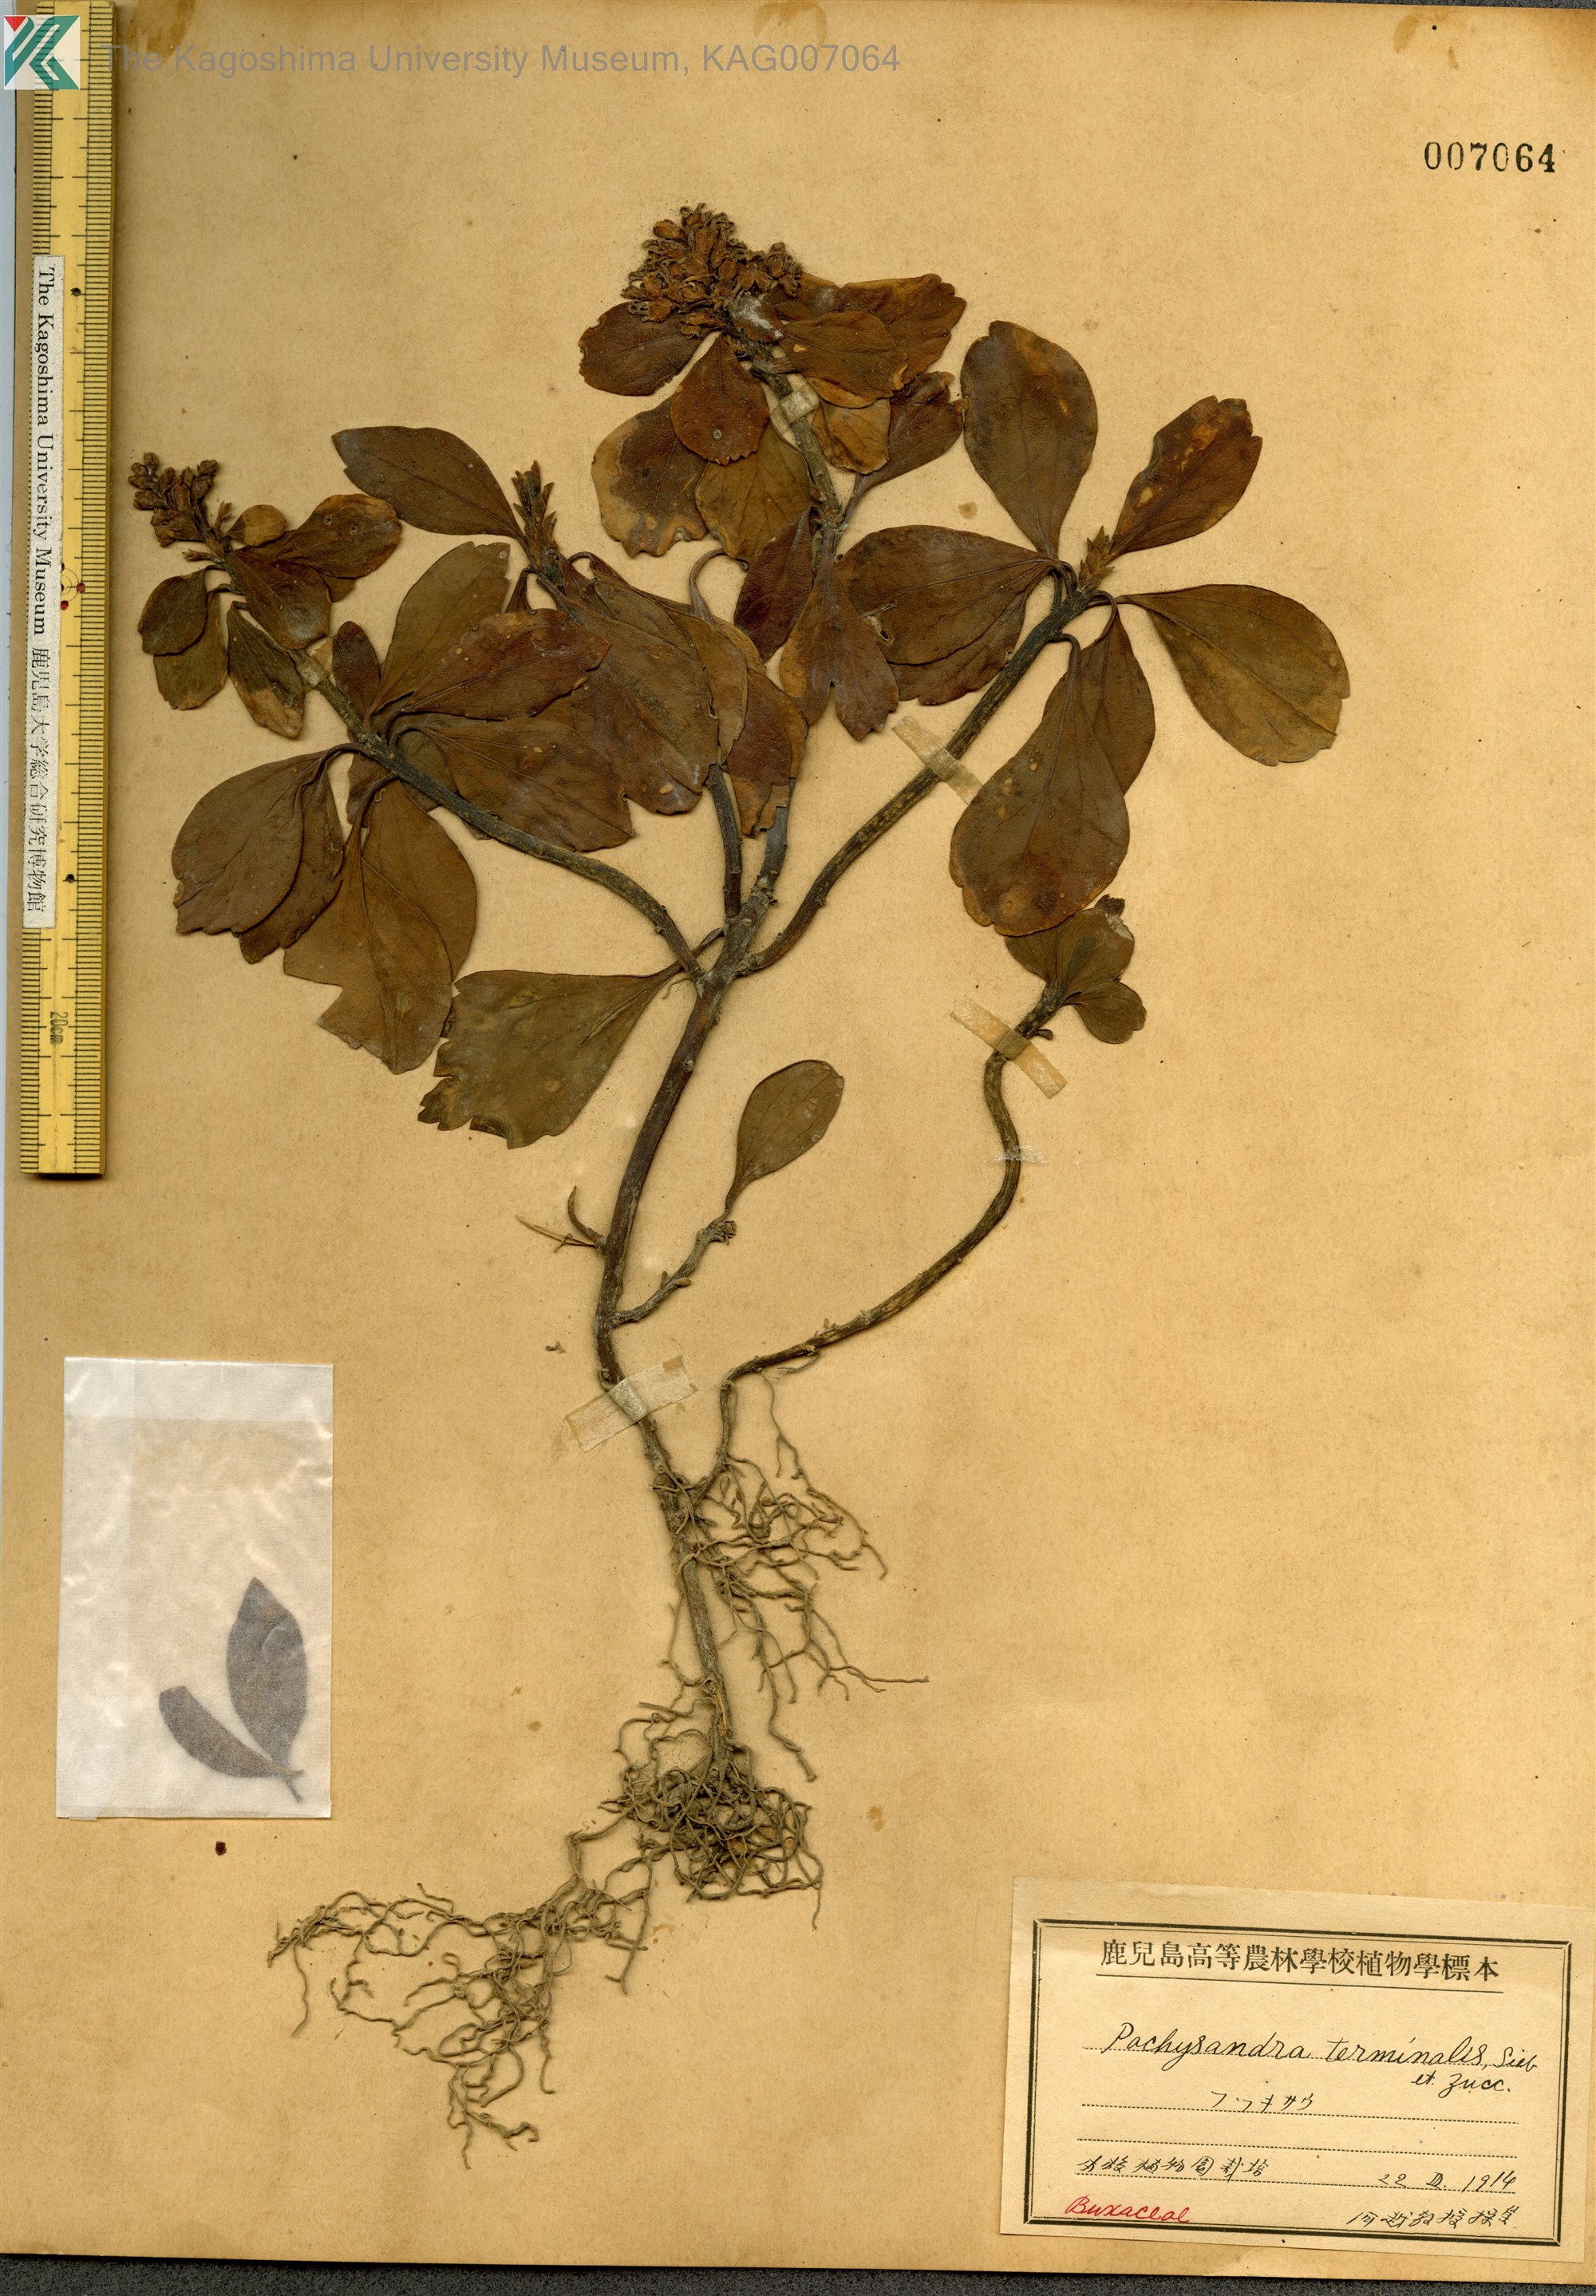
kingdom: Plantae
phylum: Tracheophyta
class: Magnoliopsida
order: Buxales
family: Buxaceae
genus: Pachysandra
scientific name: Pachysandra terminalis
